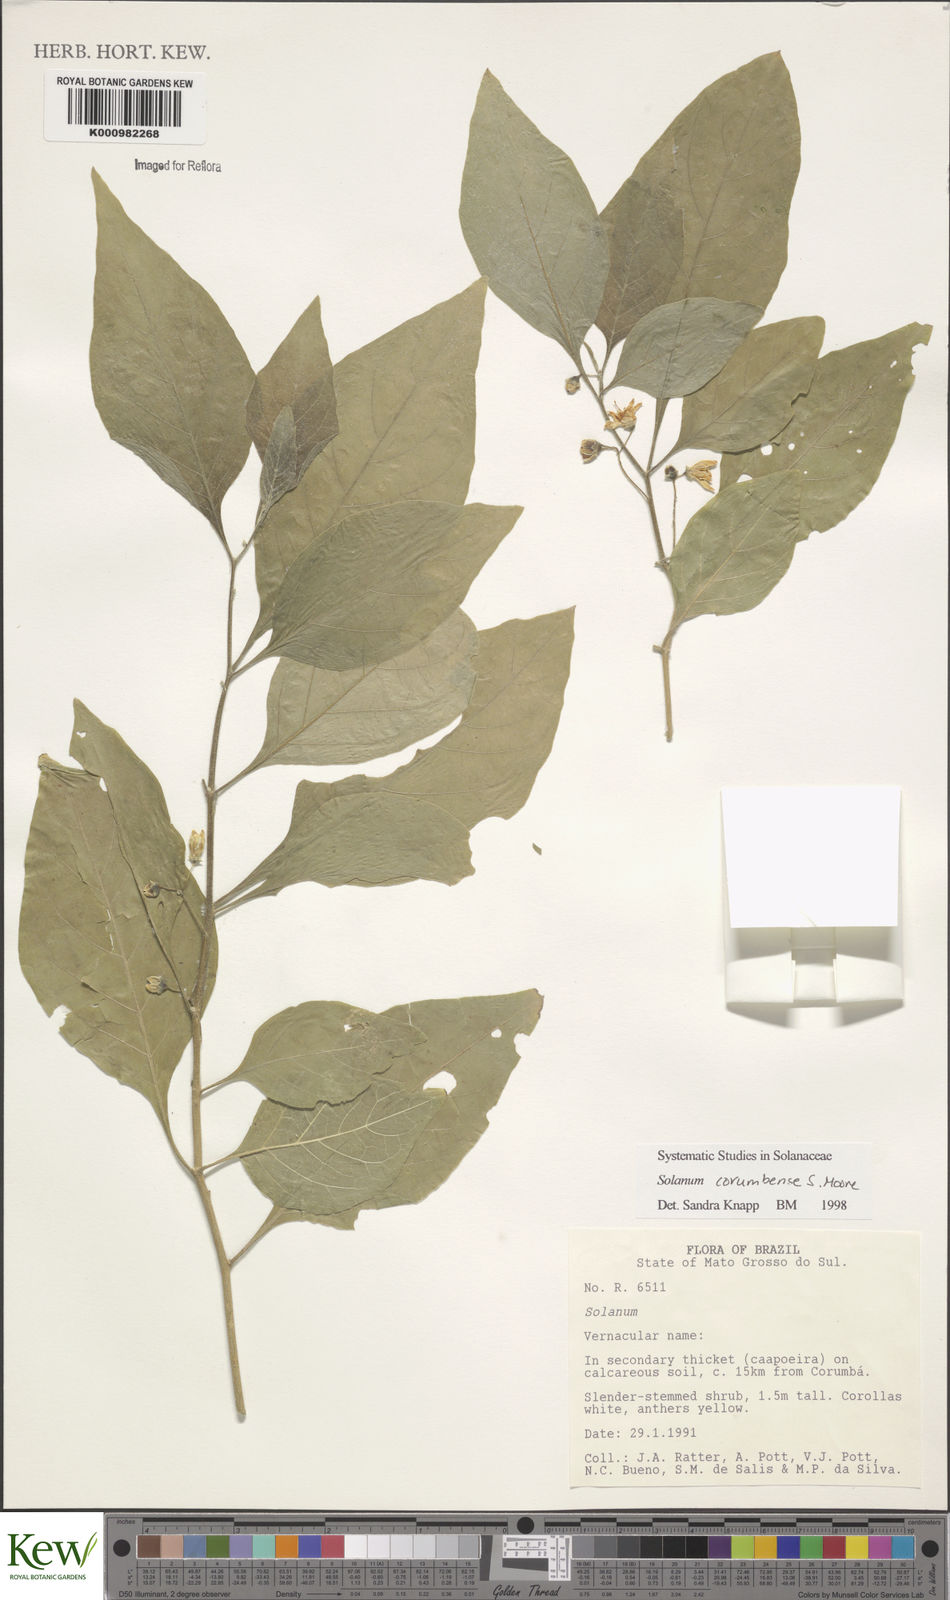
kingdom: Plantae
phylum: Tracheophyta
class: Magnoliopsida
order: Solanales
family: Solanaceae
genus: Solanum
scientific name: Solanum corumbense
